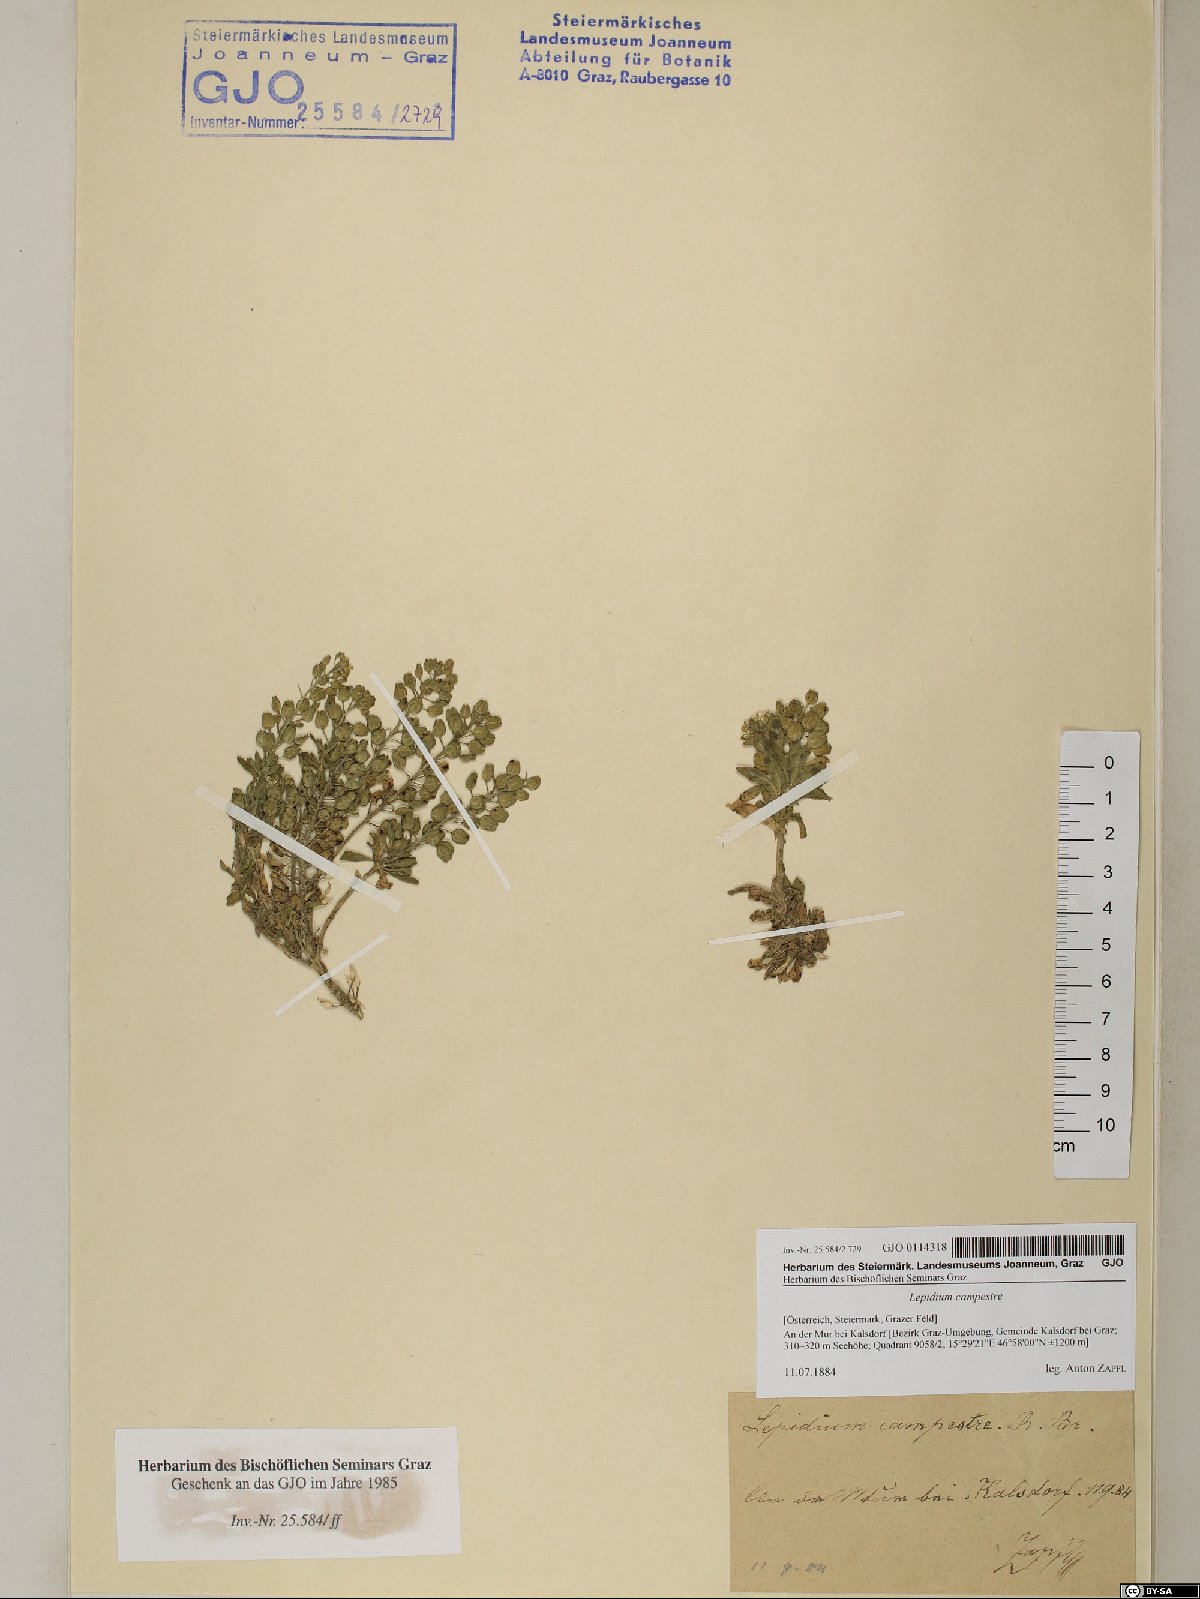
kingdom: Plantae
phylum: Tracheophyta
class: Magnoliopsida
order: Brassicales
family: Brassicaceae
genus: Lepidium
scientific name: Lepidium campestre
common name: Field pepperwort
